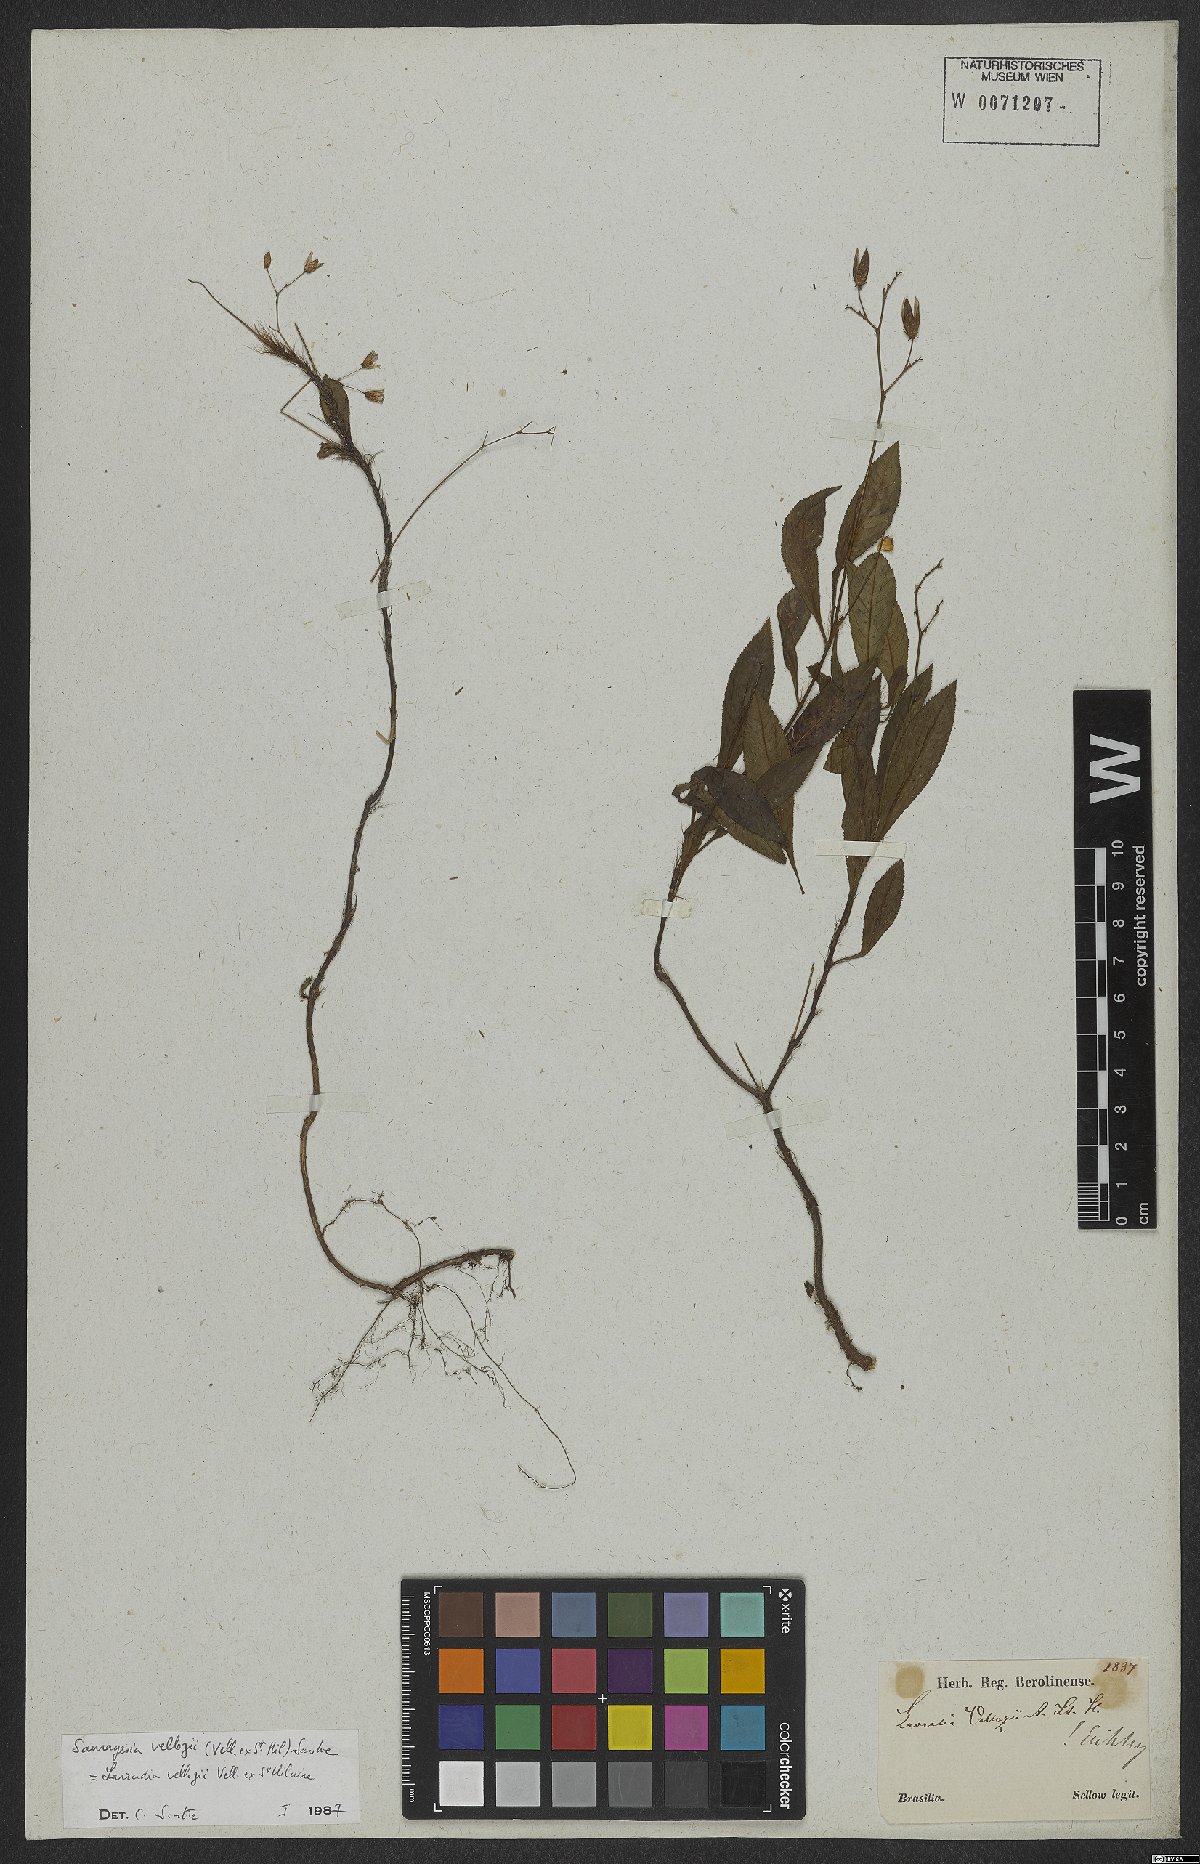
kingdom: Plantae
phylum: Tracheophyta
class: Magnoliopsida
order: Malpighiales
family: Ochnaceae
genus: Sauvagesia
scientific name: Sauvagesia vellozii
